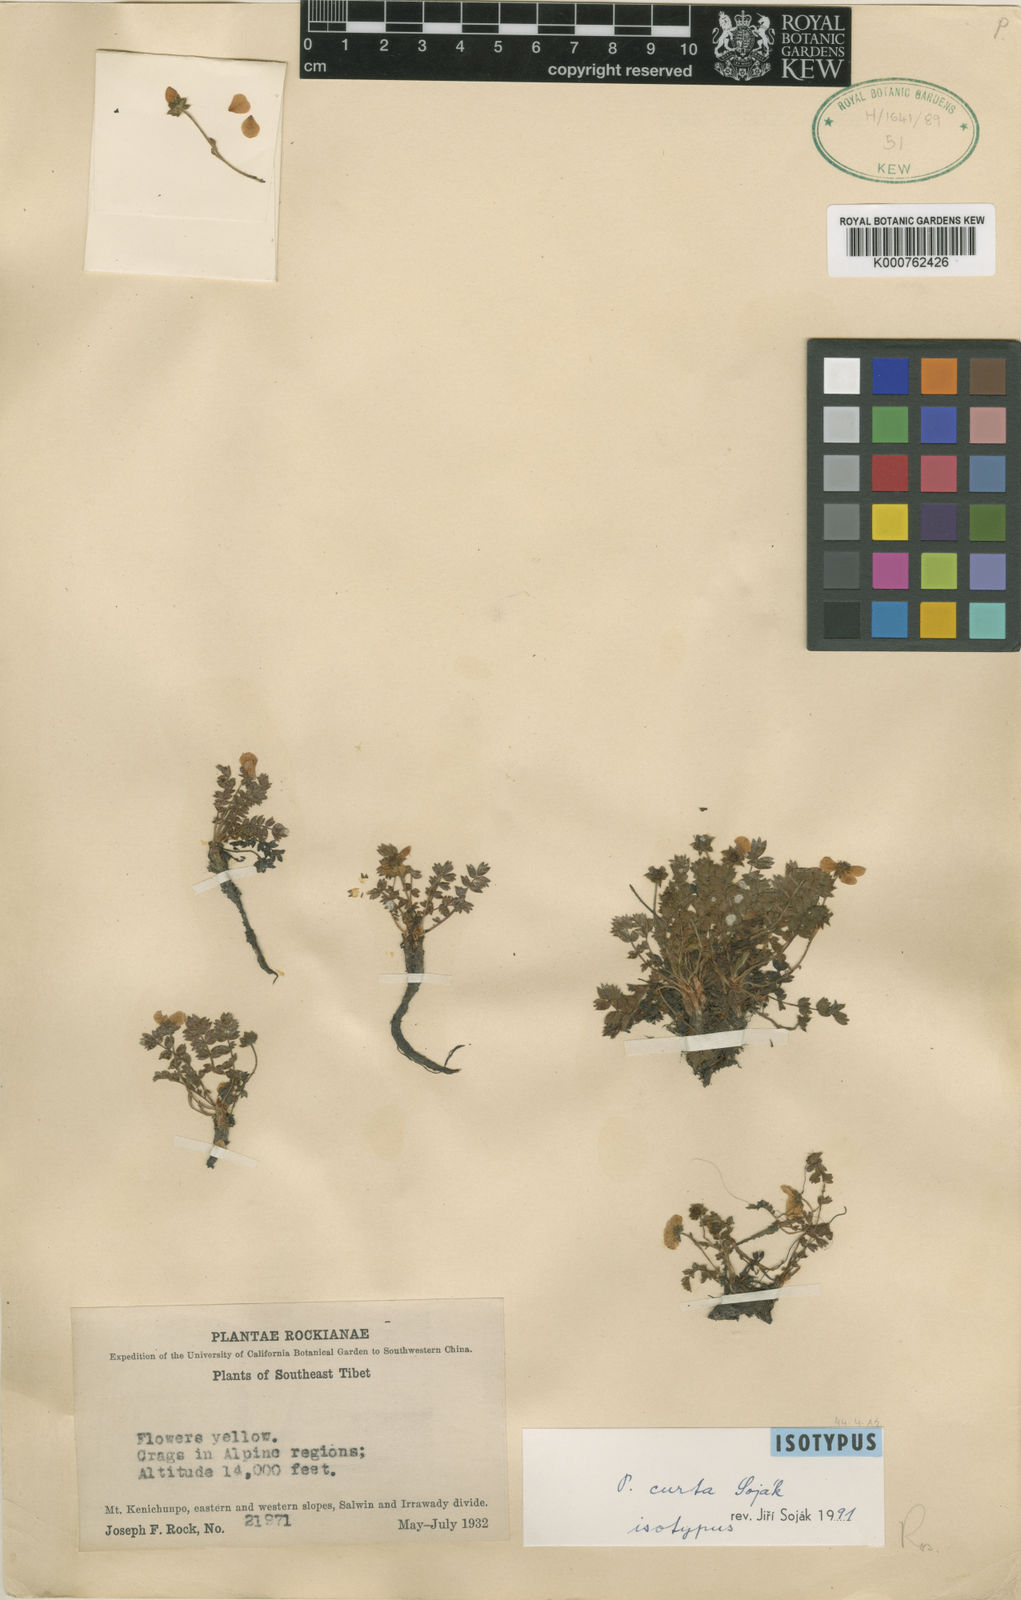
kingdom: Plantae
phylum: Tracheophyta
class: Magnoliopsida
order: Rosales
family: Rosaceae
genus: Potentilla
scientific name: Potentilla
